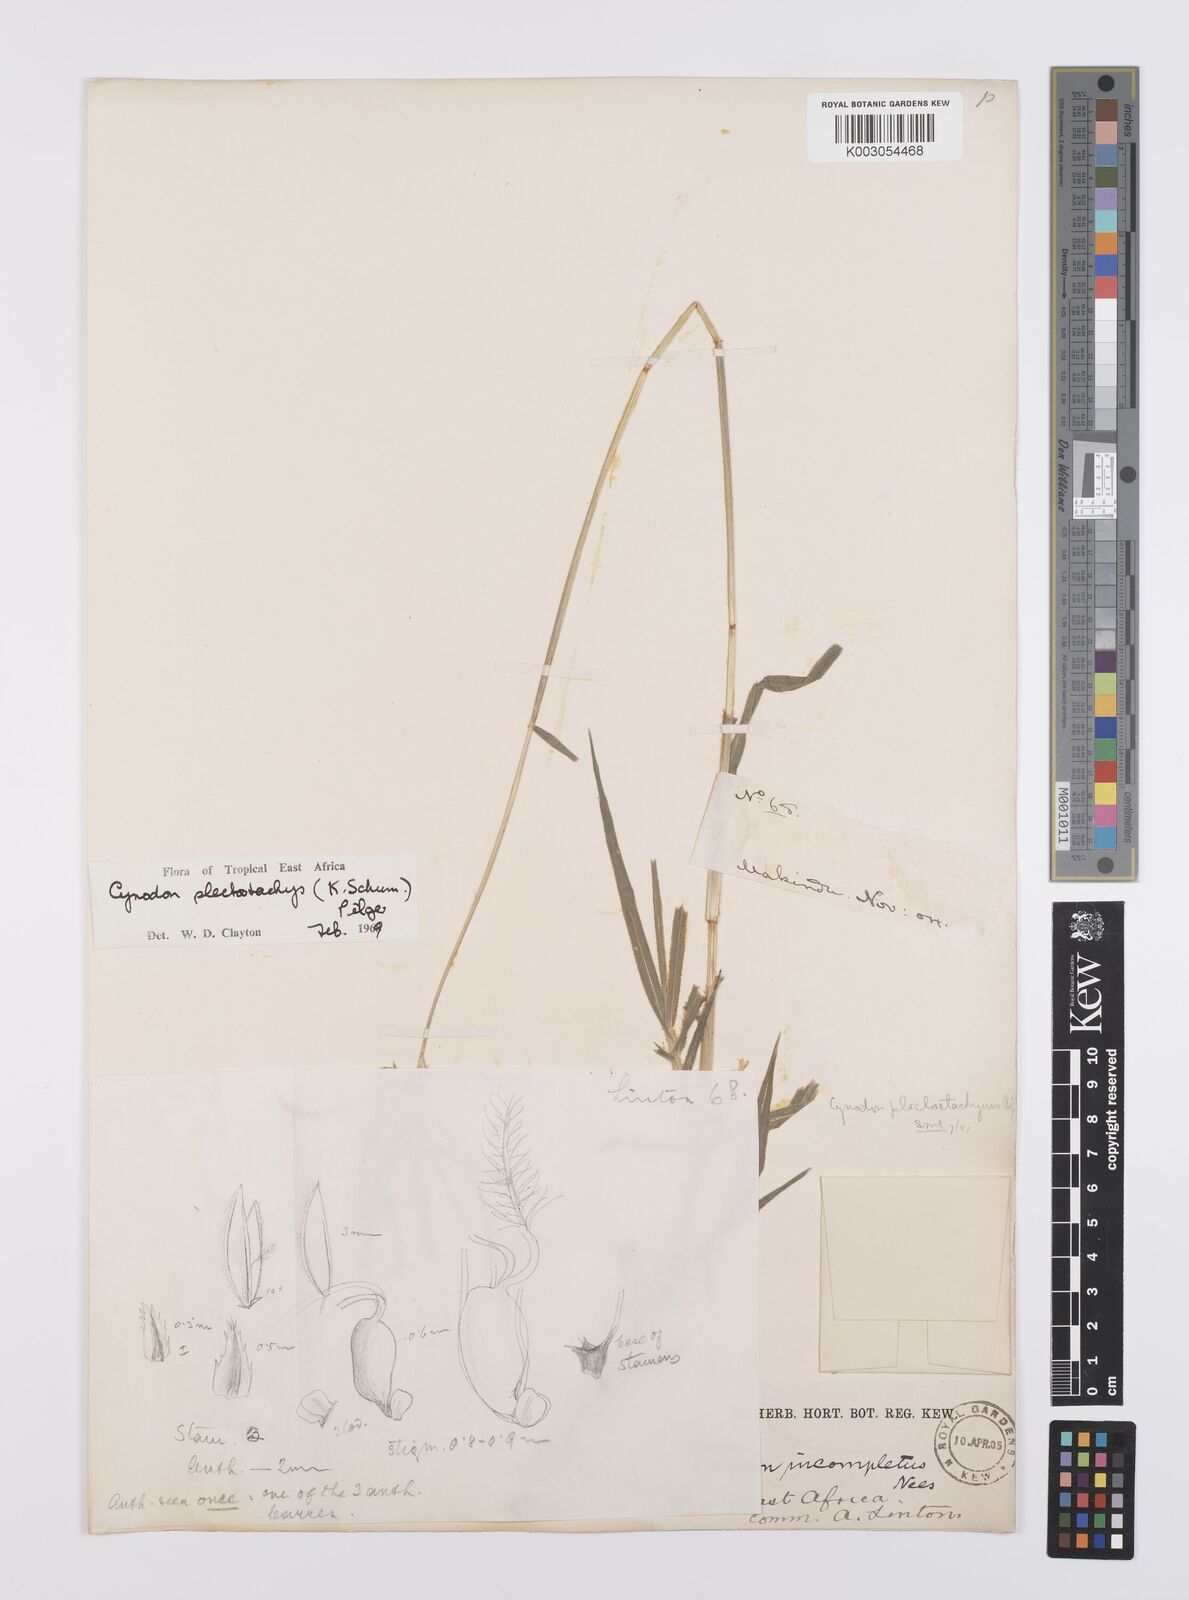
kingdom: Plantae
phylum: Tracheophyta
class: Liliopsida
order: Poales
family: Poaceae
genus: Cynodon
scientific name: Cynodon plectostachyus
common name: Stargrass
